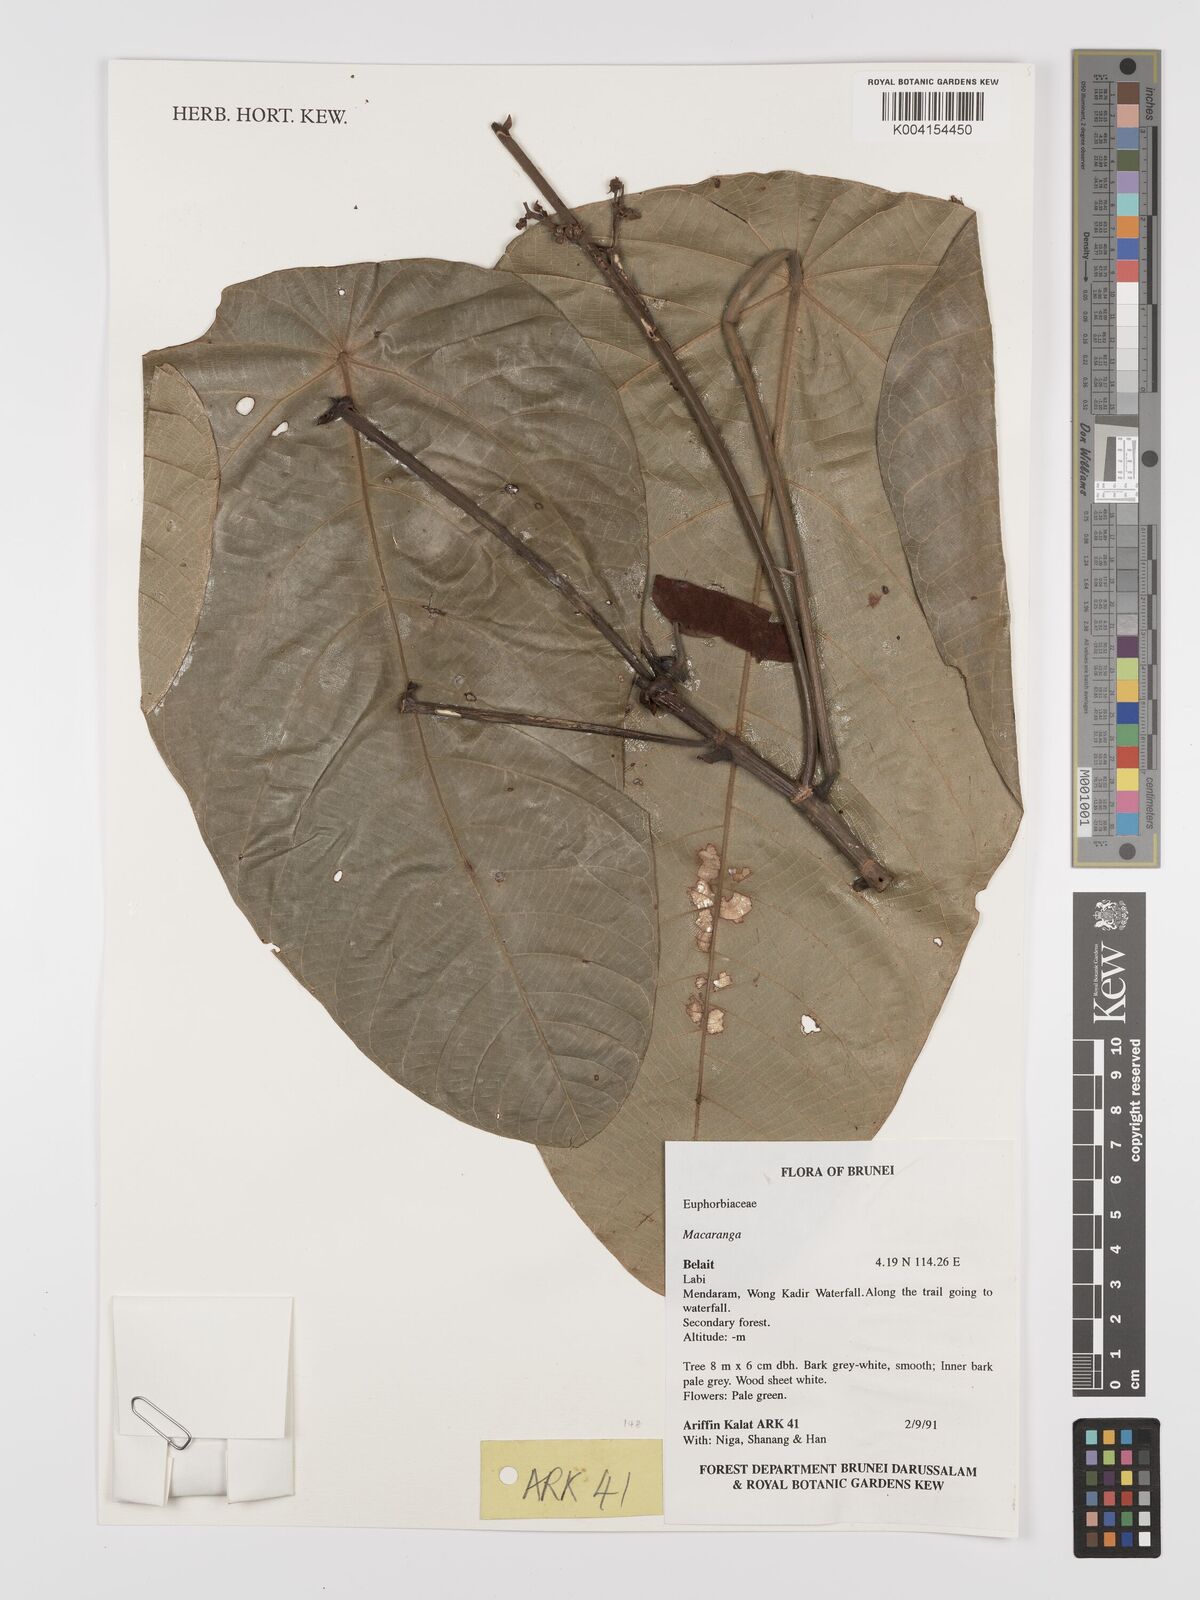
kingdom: Plantae
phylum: Tracheophyta
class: Magnoliopsida
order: Malpighiales
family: Euphorbiaceae
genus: Macaranga
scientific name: Macaranga
